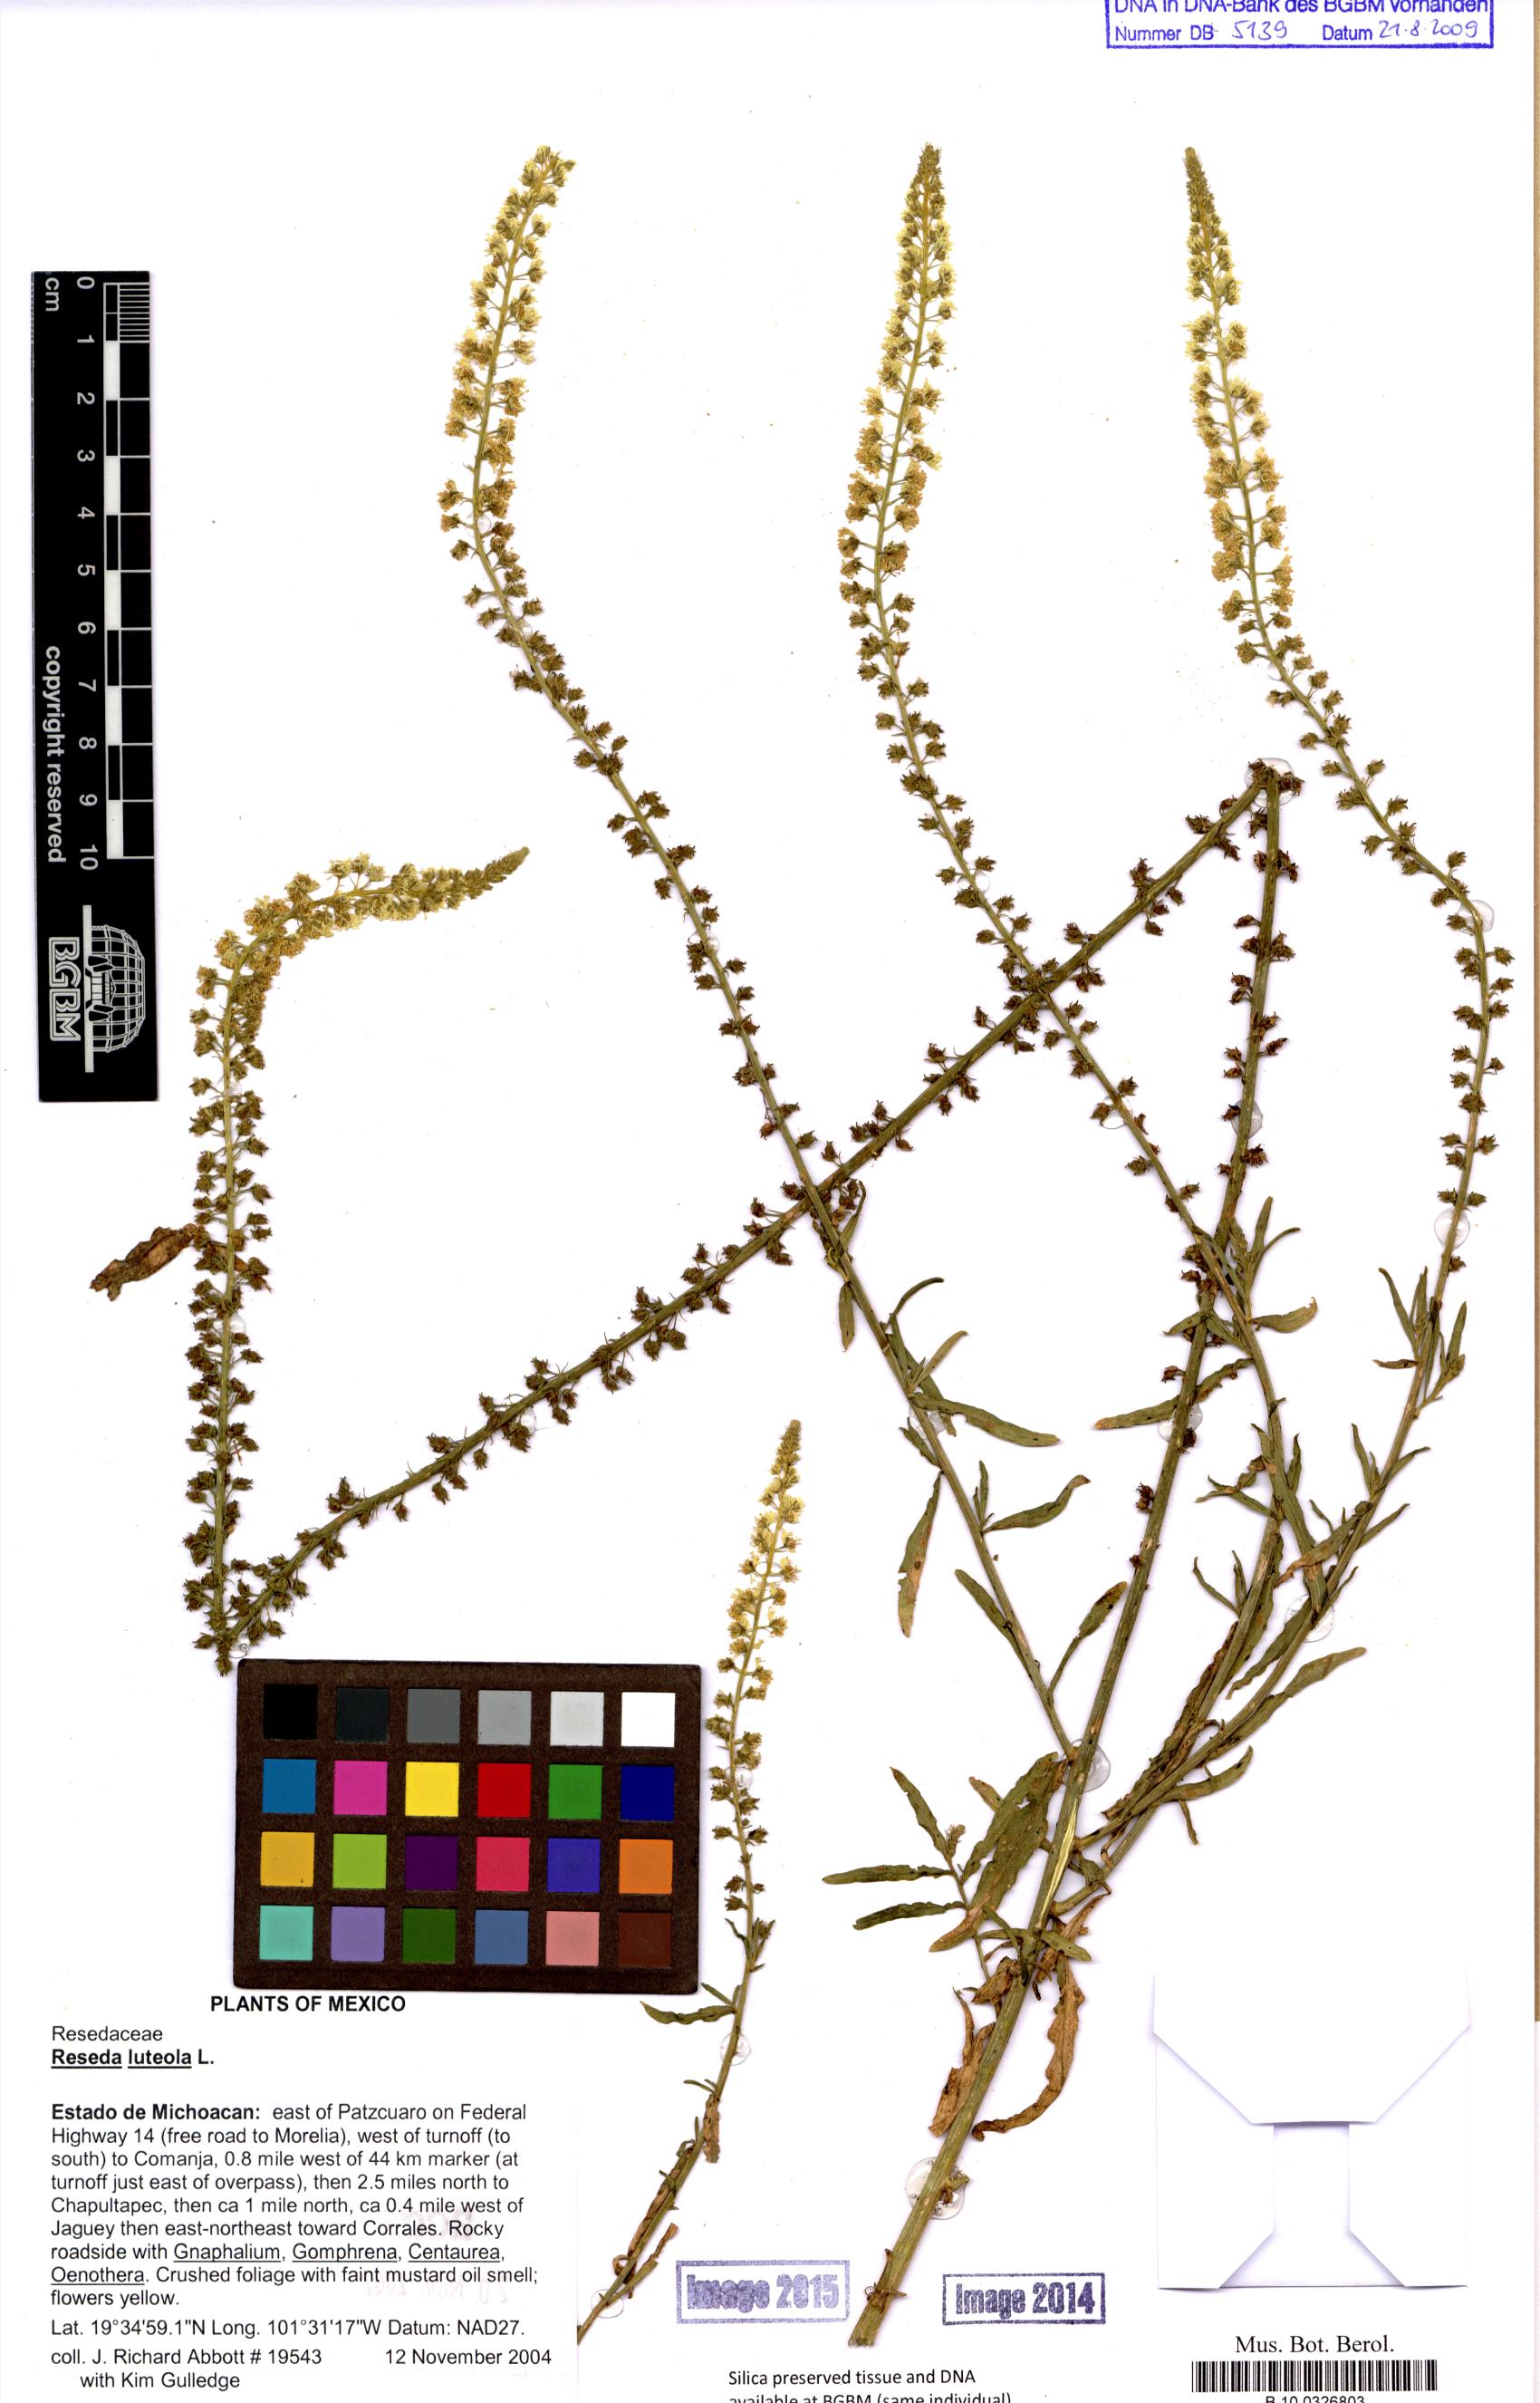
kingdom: Plantae
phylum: Tracheophyta
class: Magnoliopsida
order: Brassicales
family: Resedaceae
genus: Reseda
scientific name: Reseda luteola
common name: Weld
